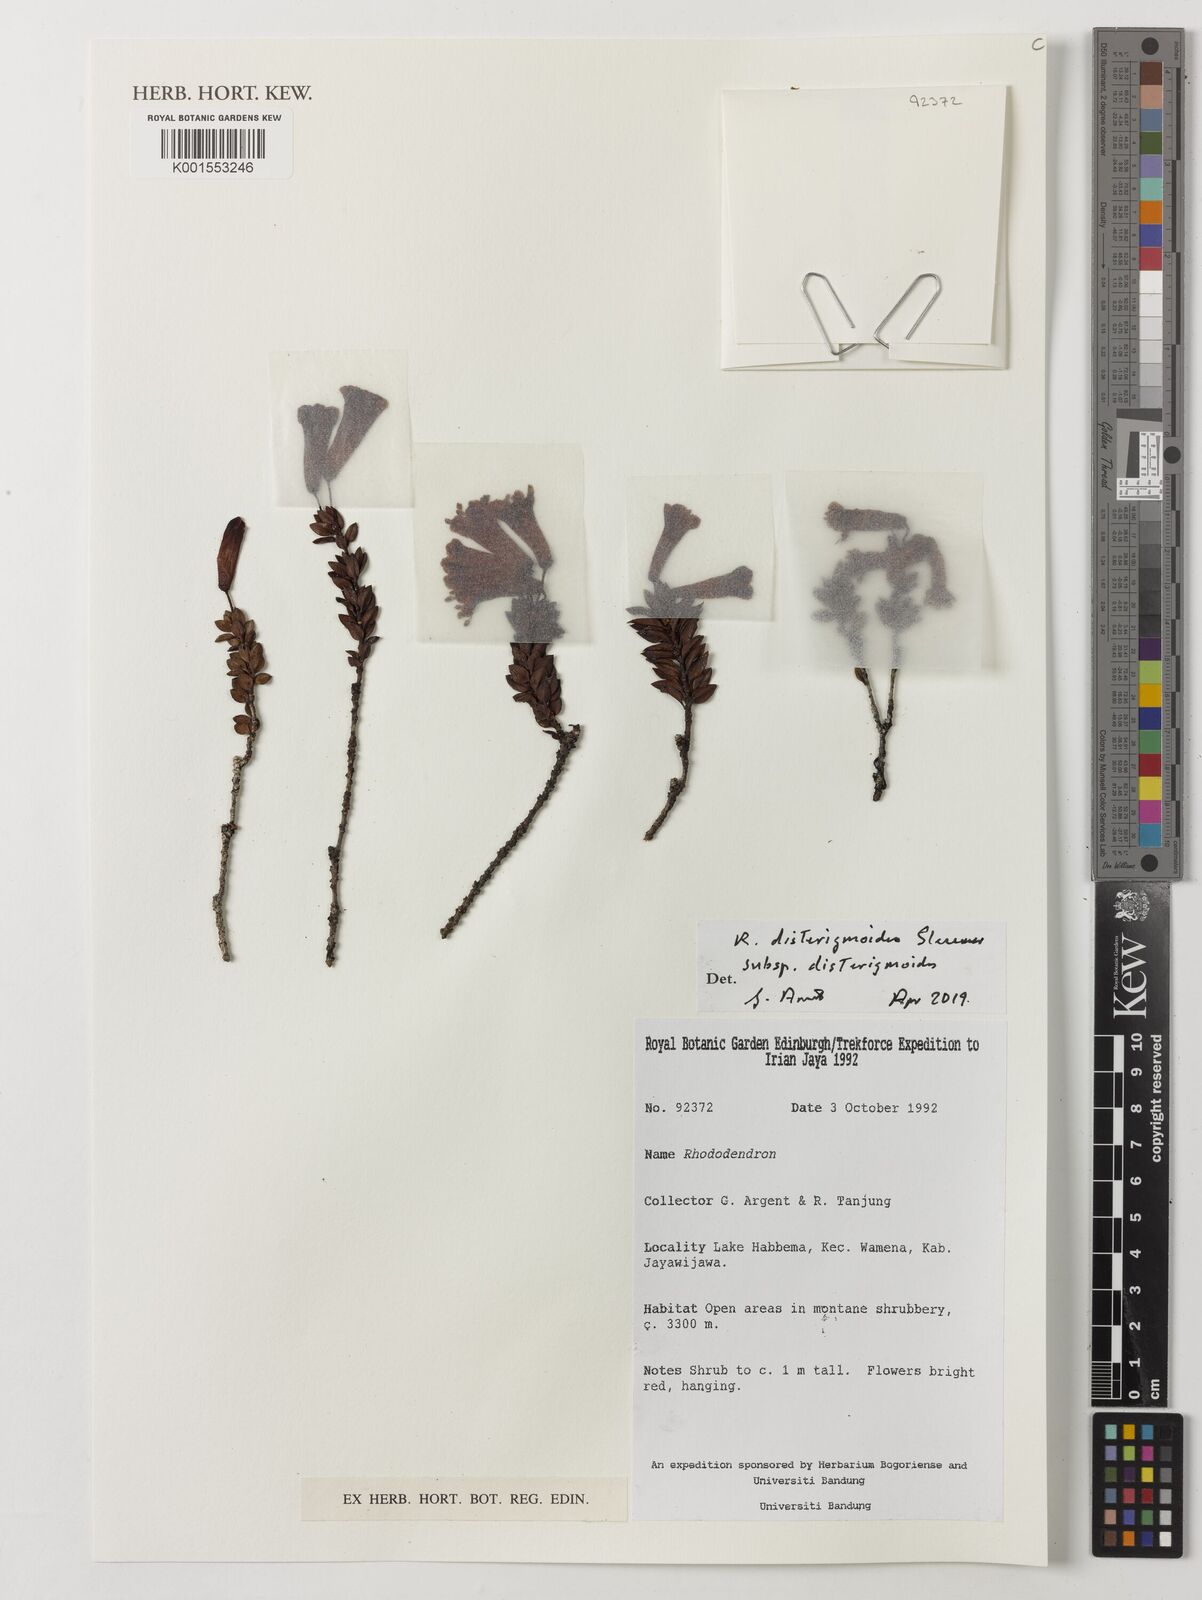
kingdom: Plantae
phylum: Tracheophyta
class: Magnoliopsida
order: Ericales
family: Ericaceae
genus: Rhododendron
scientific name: Rhododendron disterigmoides
